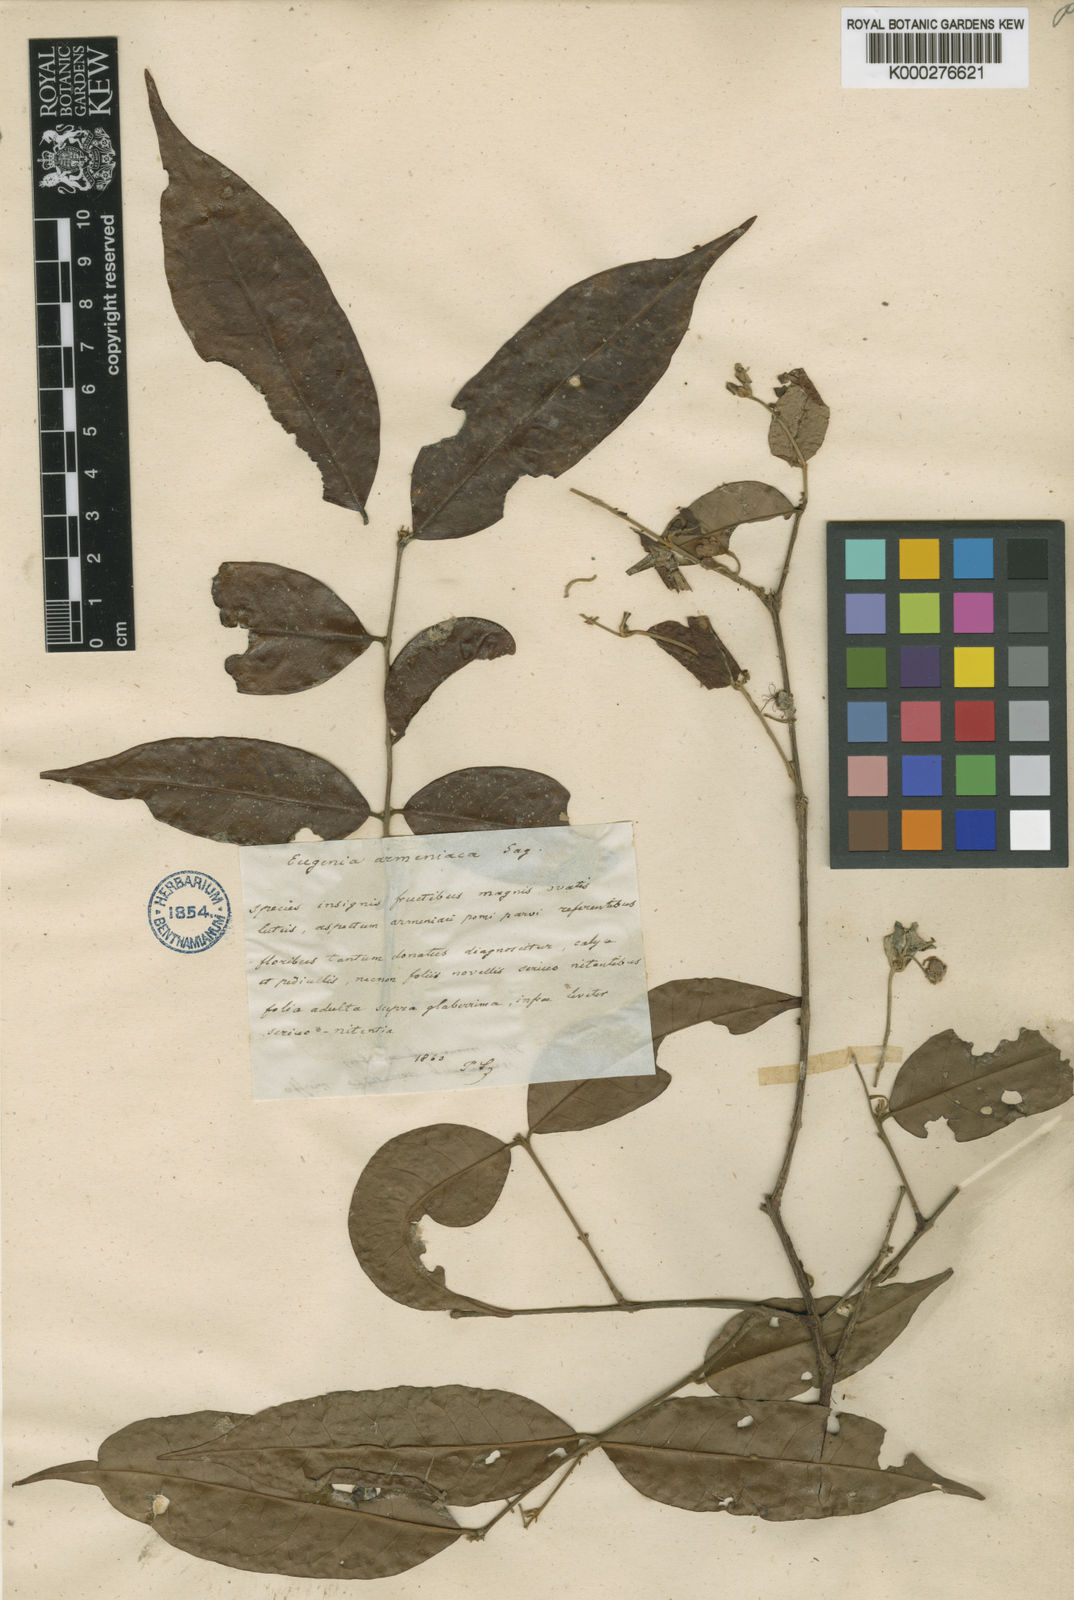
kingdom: Plantae
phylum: Tracheophyta
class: Magnoliopsida
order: Myrtales
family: Myrtaceae
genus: Eugenia
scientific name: Eugenia armeniaca
